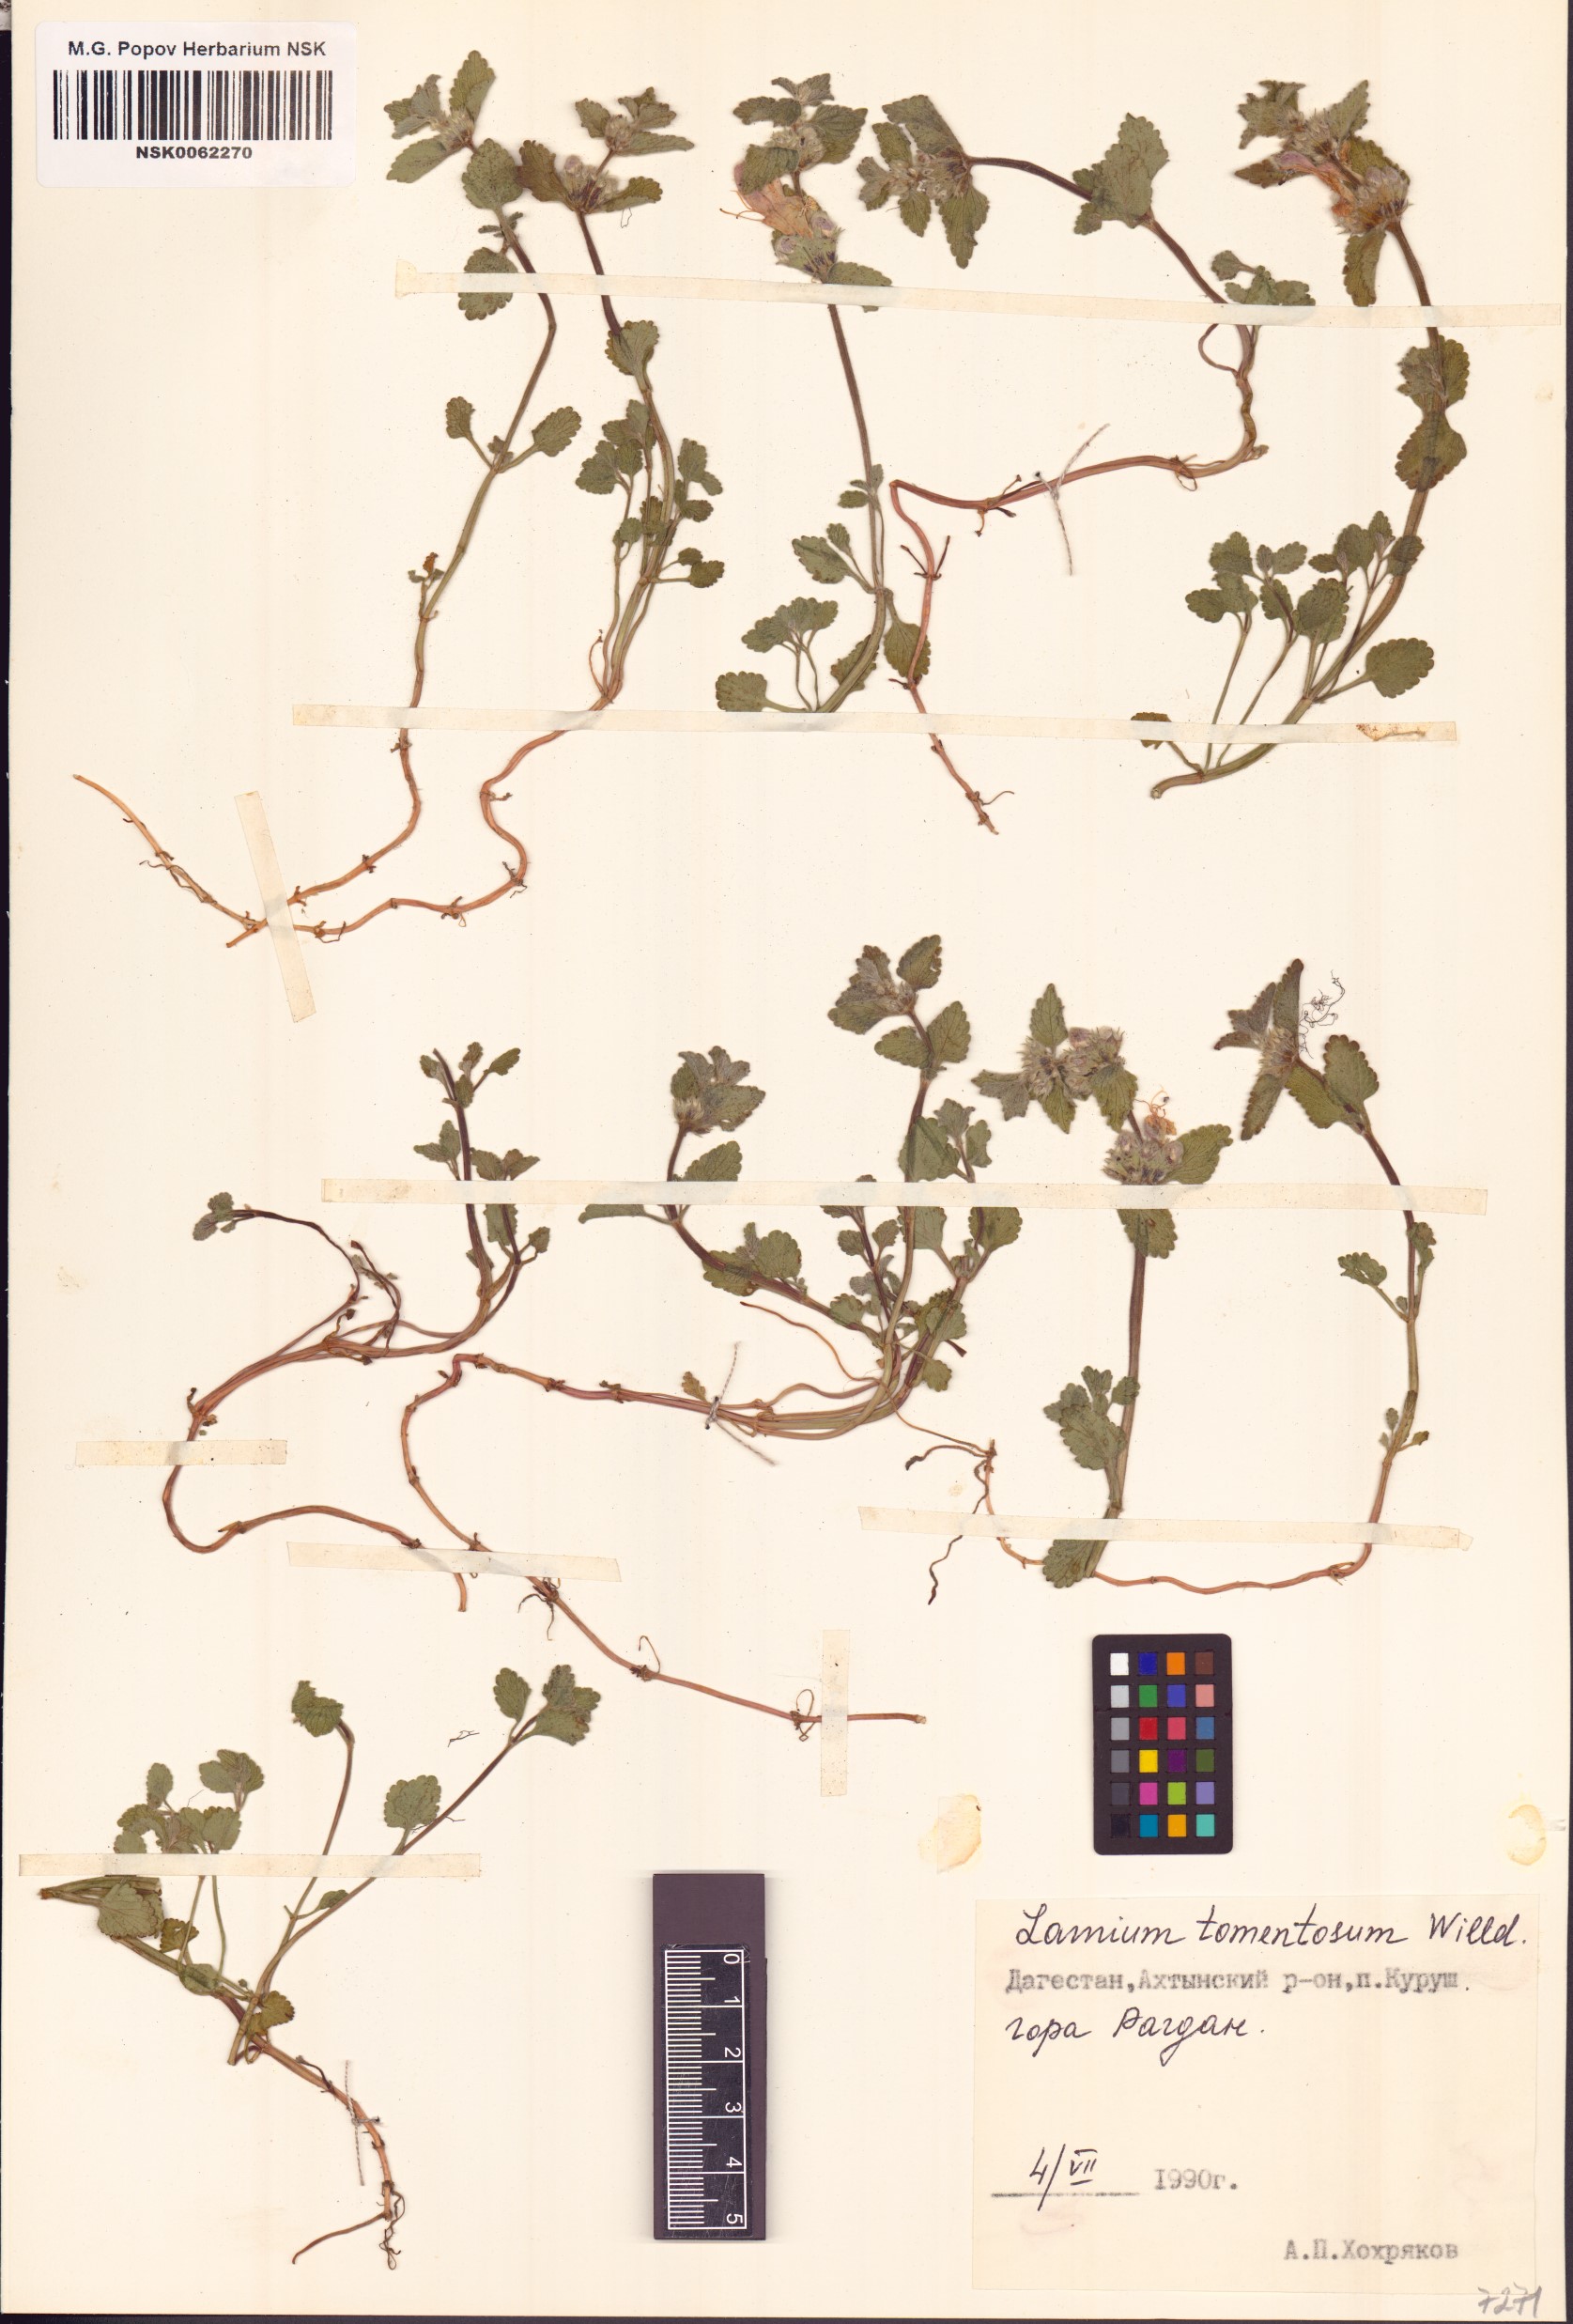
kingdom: Plantae
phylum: Tracheophyta
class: Magnoliopsida
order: Lamiales
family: Lamiaceae
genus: Lamium
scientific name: Lamium tomentosum
